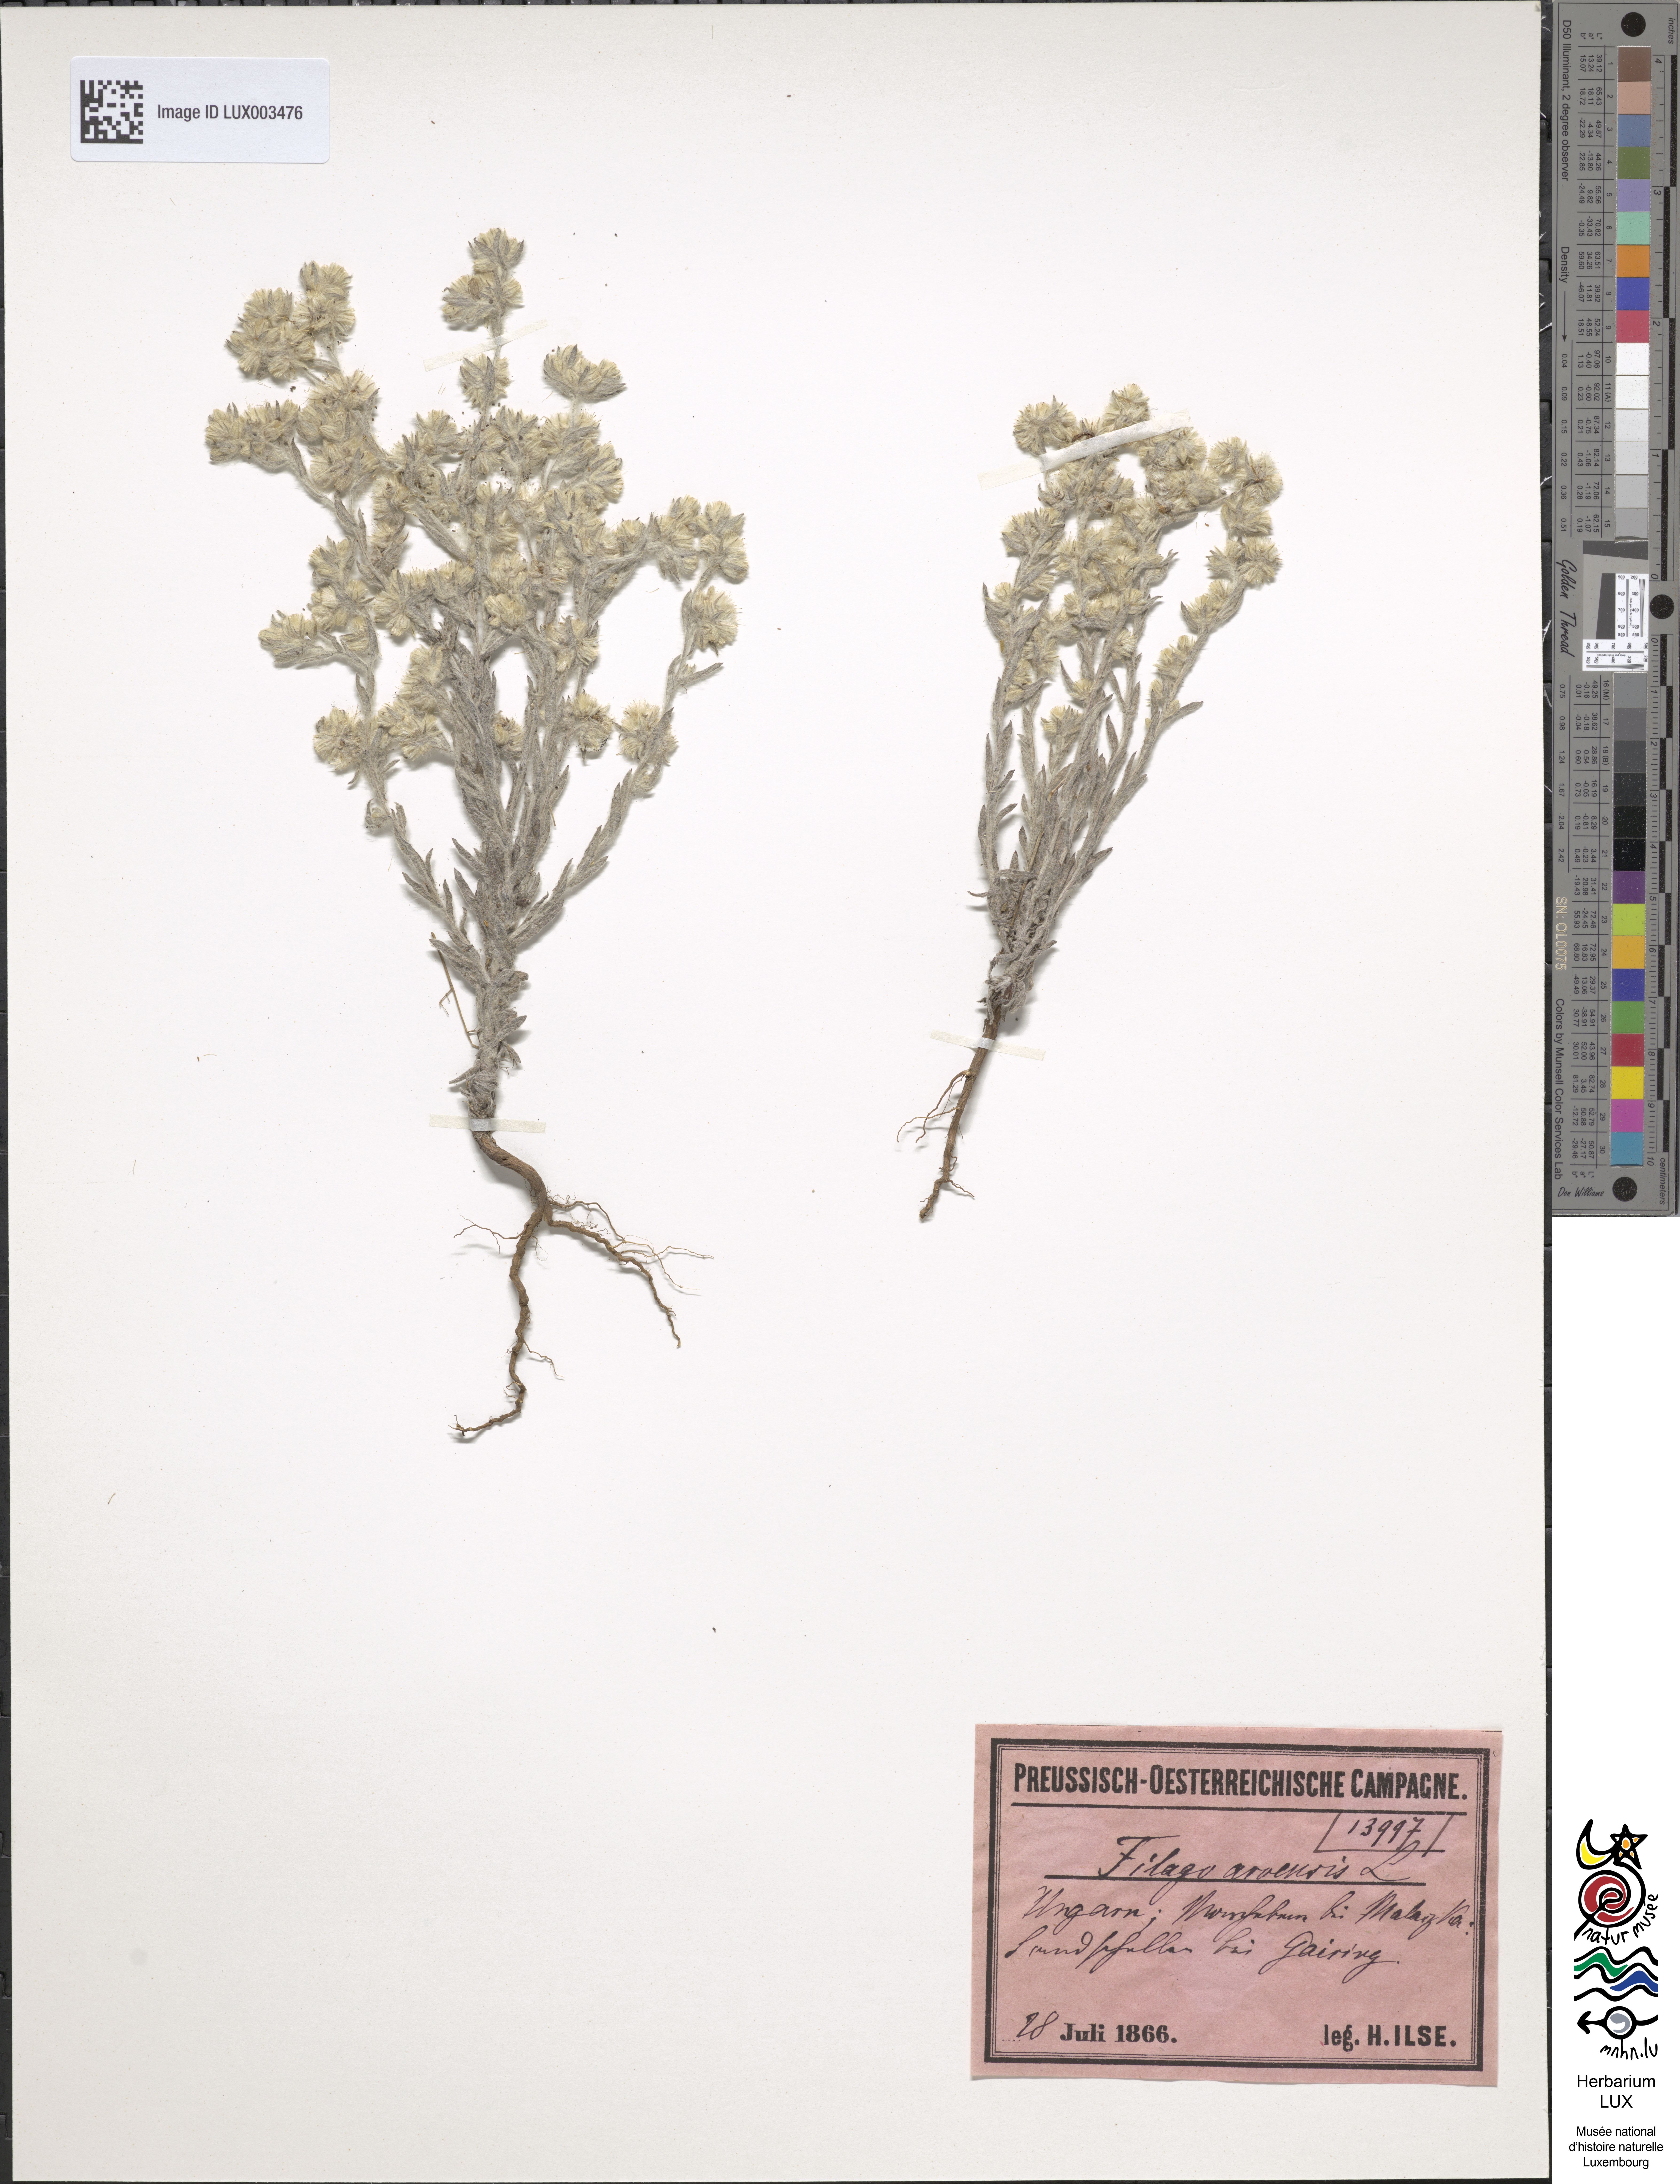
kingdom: Plantae
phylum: Tracheophyta
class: Magnoliopsida
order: Asterales
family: Asteraceae
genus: Filago
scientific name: Filago arvensis
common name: Field cudweed
